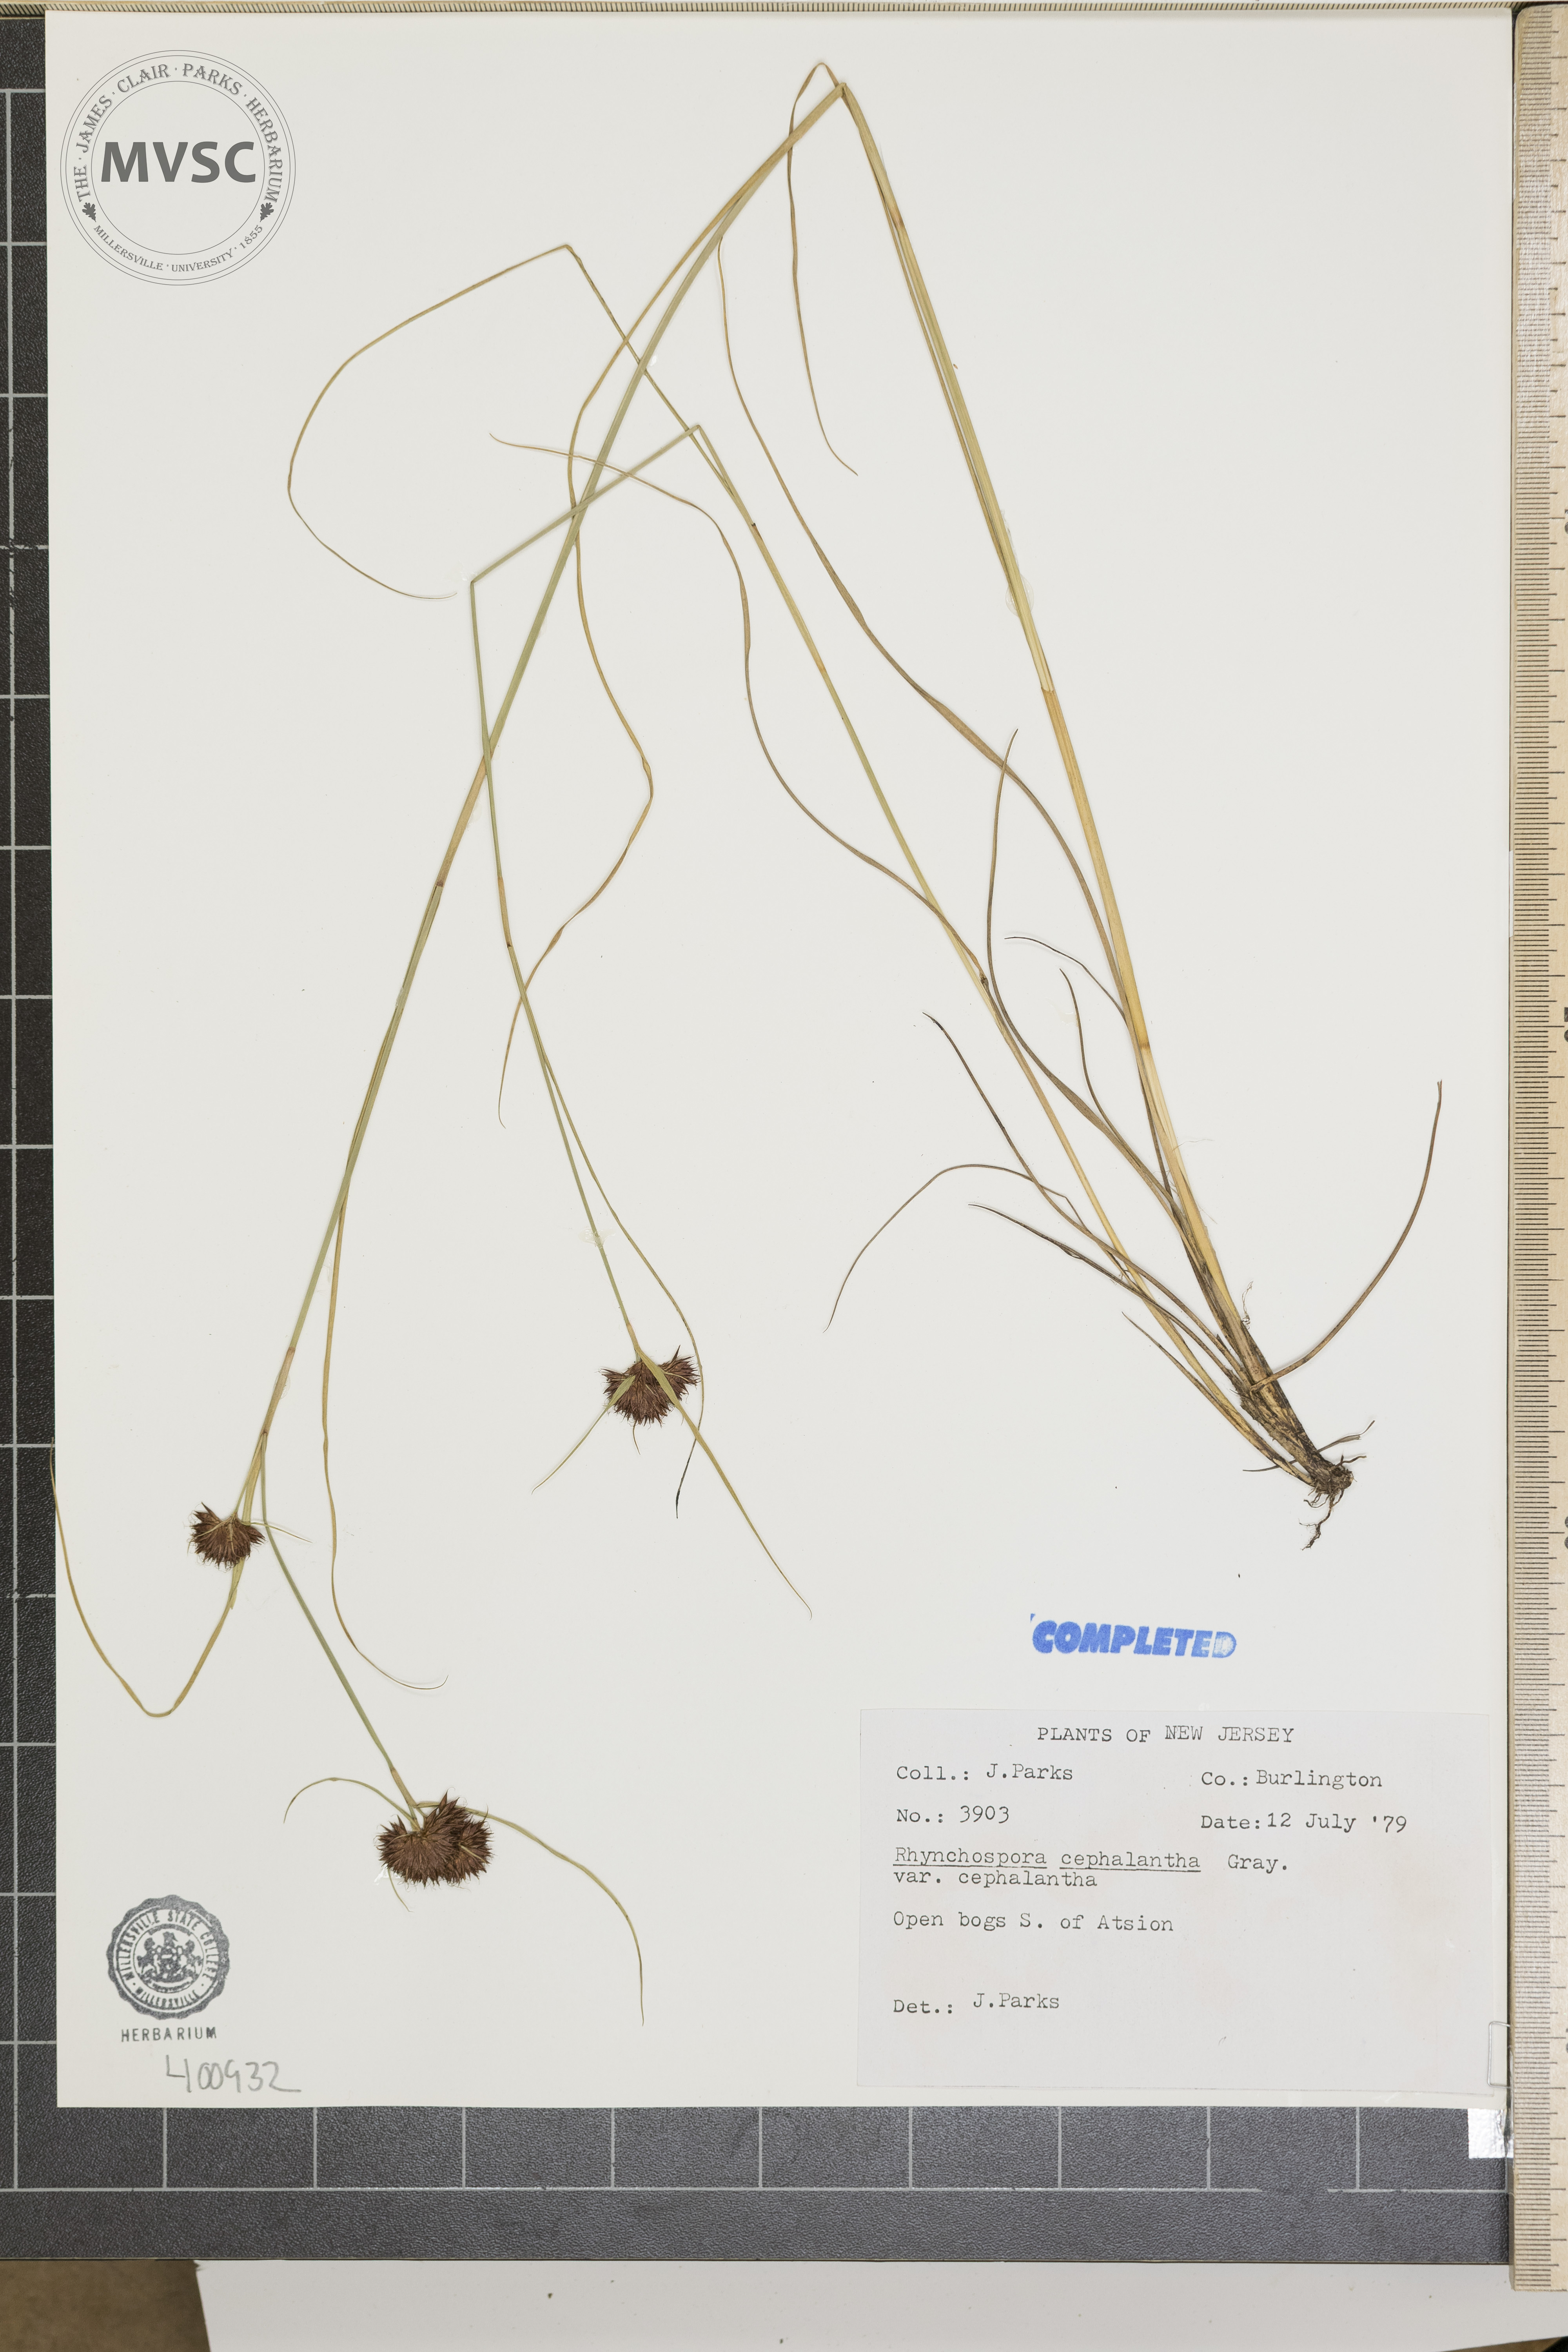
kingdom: Plantae
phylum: Tracheophyta
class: Liliopsida
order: Poales
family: Cyperaceae
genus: Rhynchospora
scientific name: Rhynchospora cephalantha
